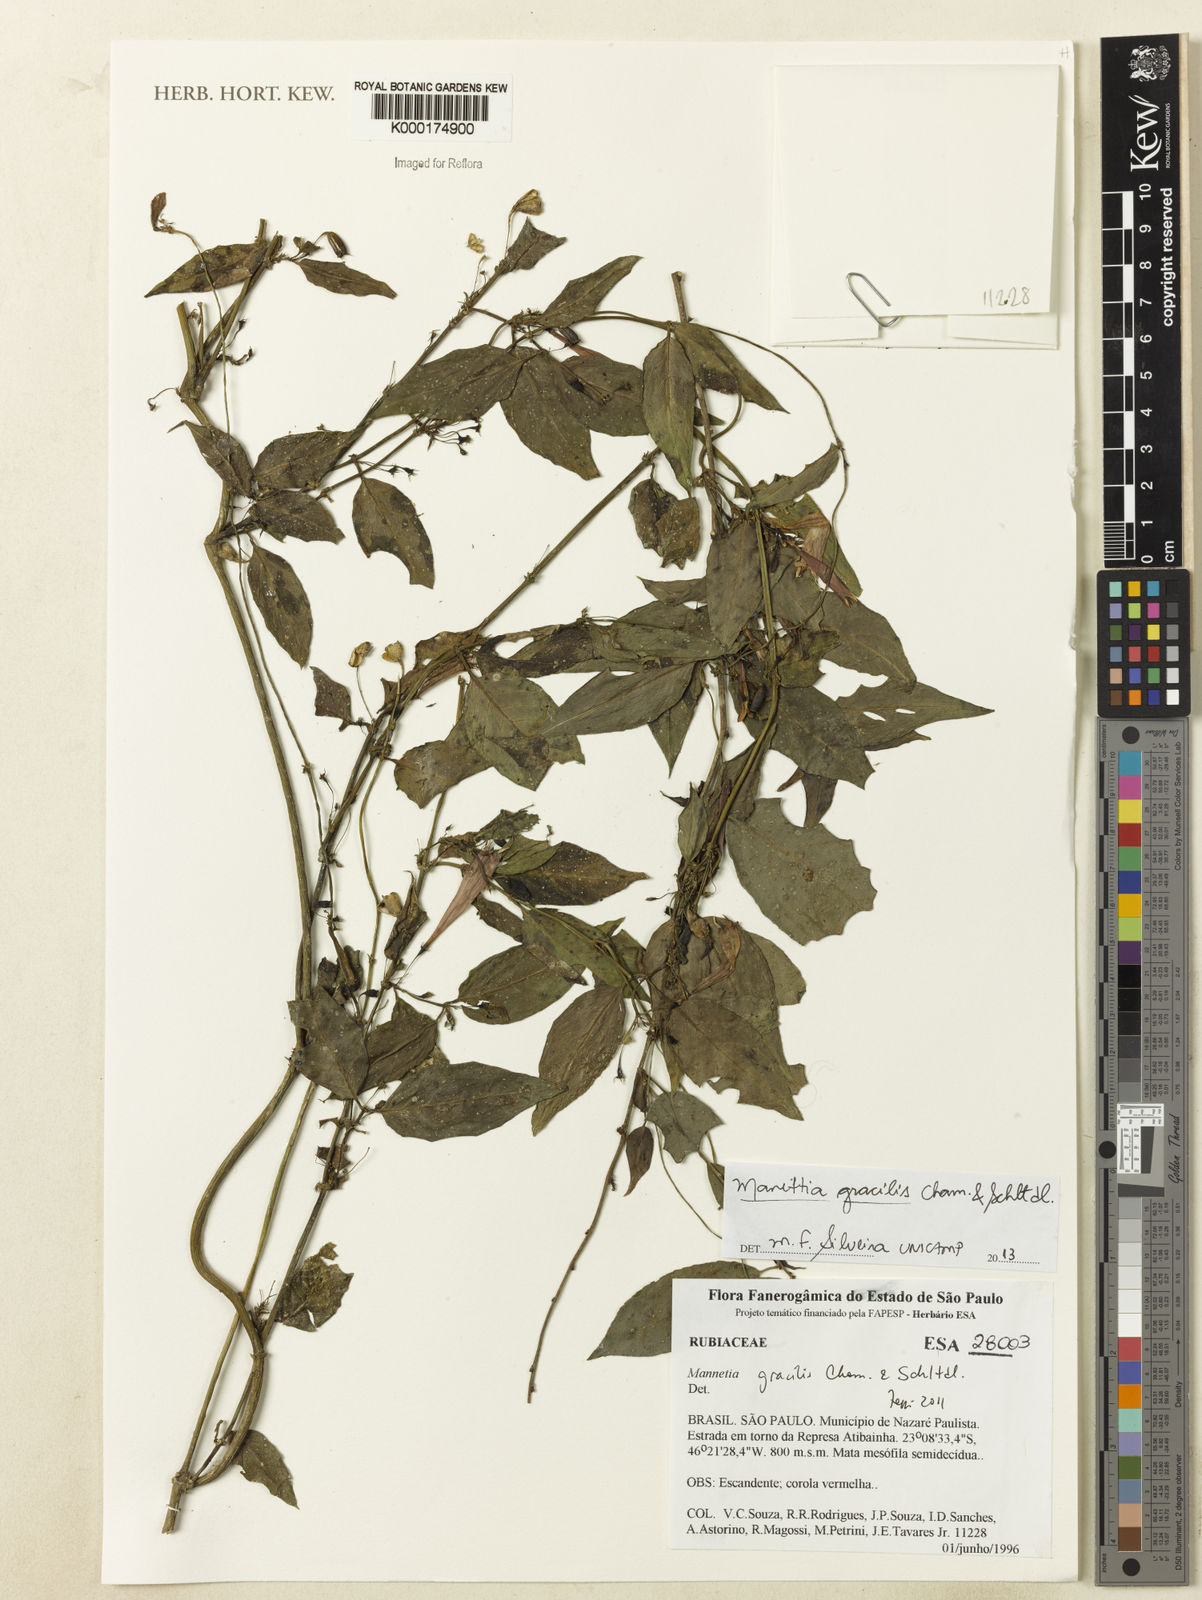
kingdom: Plantae
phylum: Tracheophyta
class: Magnoliopsida
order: Gentianales
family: Rubiaceae
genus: Manettia
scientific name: Manettia gracilis
